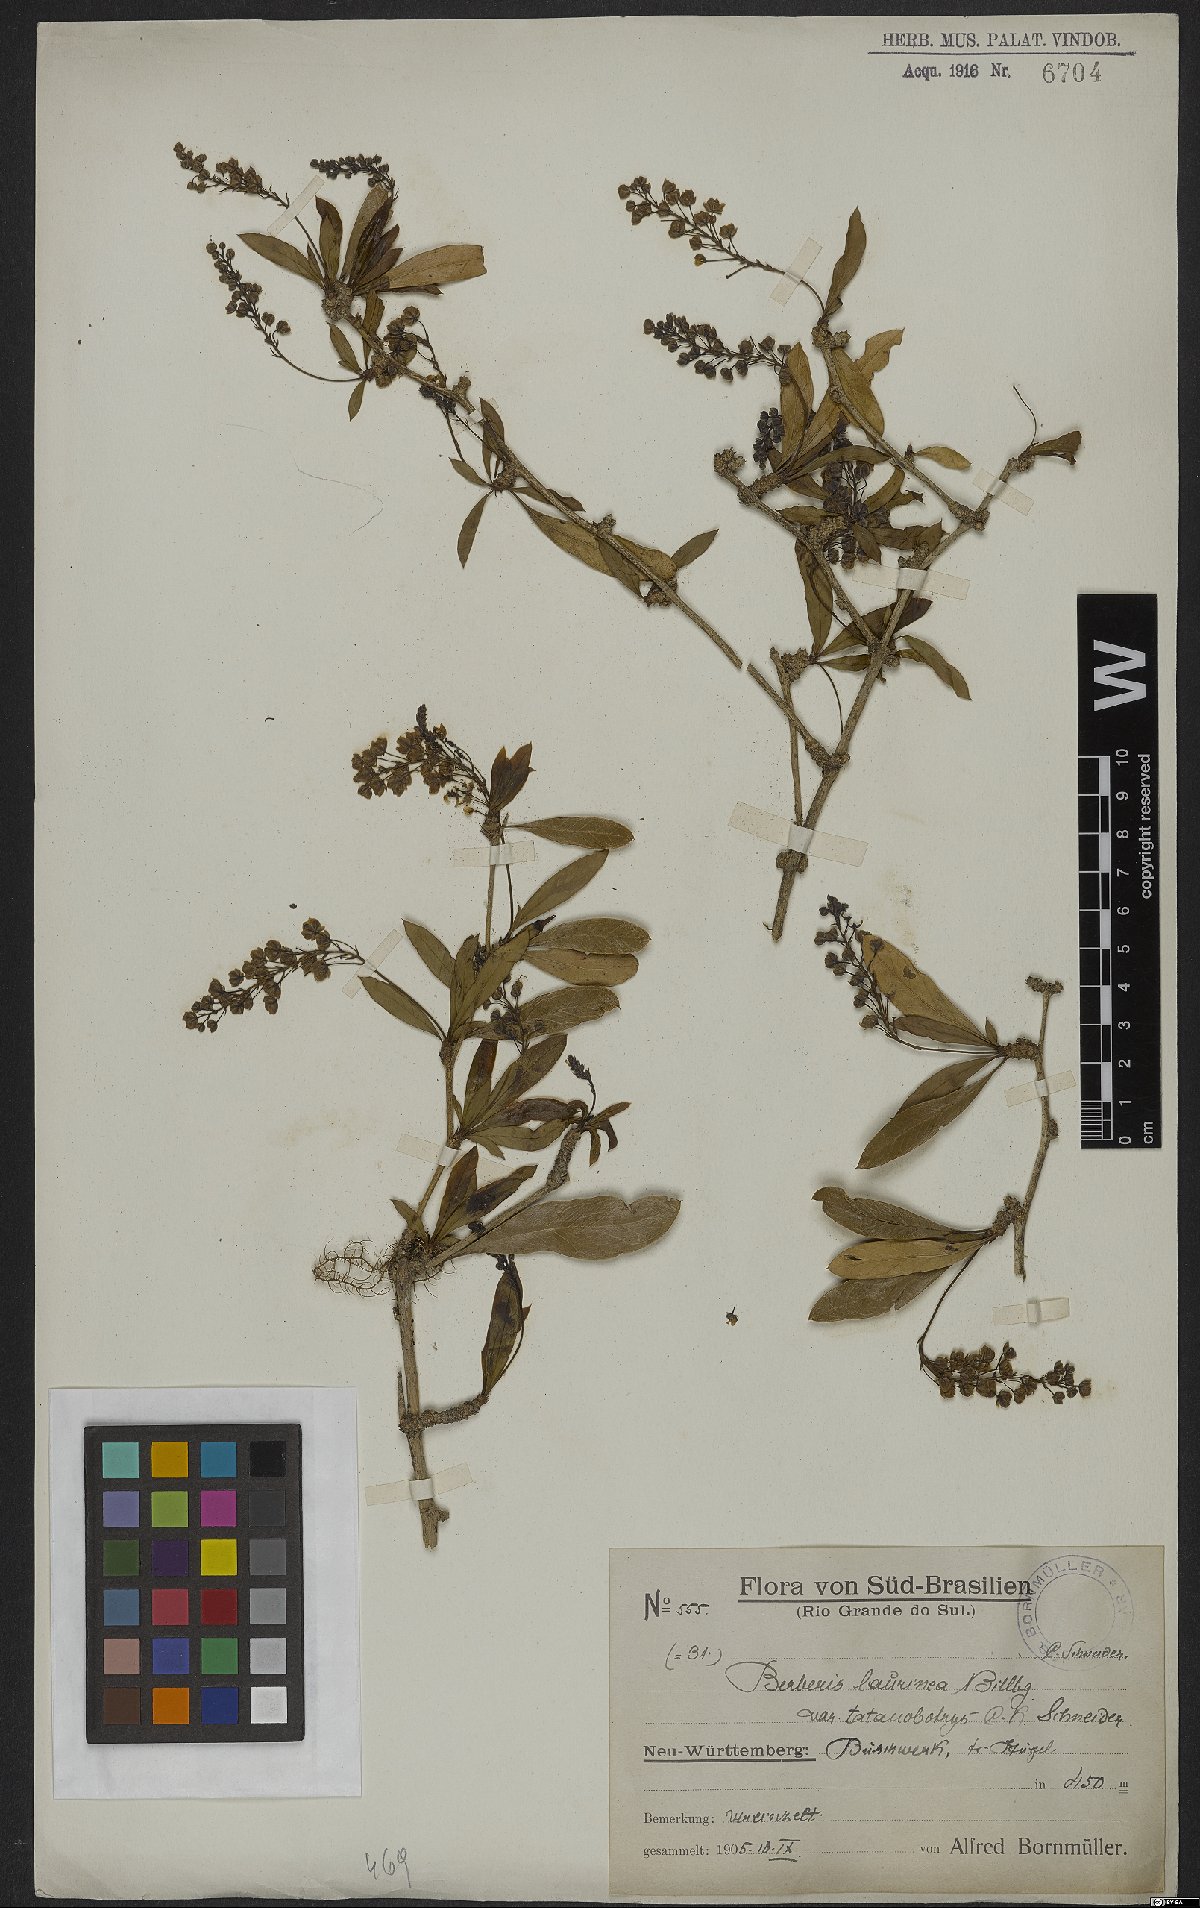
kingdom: Plantae
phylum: Tracheophyta
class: Magnoliopsida
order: Ranunculales
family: Berberidaceae
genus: Berberis
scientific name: Berberis laurina
